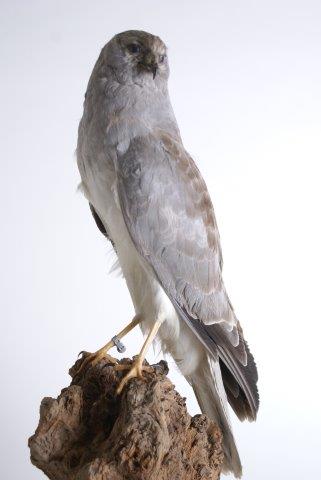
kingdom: Animalia
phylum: Chordata
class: Aves
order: Accipitriformes
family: Accipitridae
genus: Circus
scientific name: Circus cyaneus
